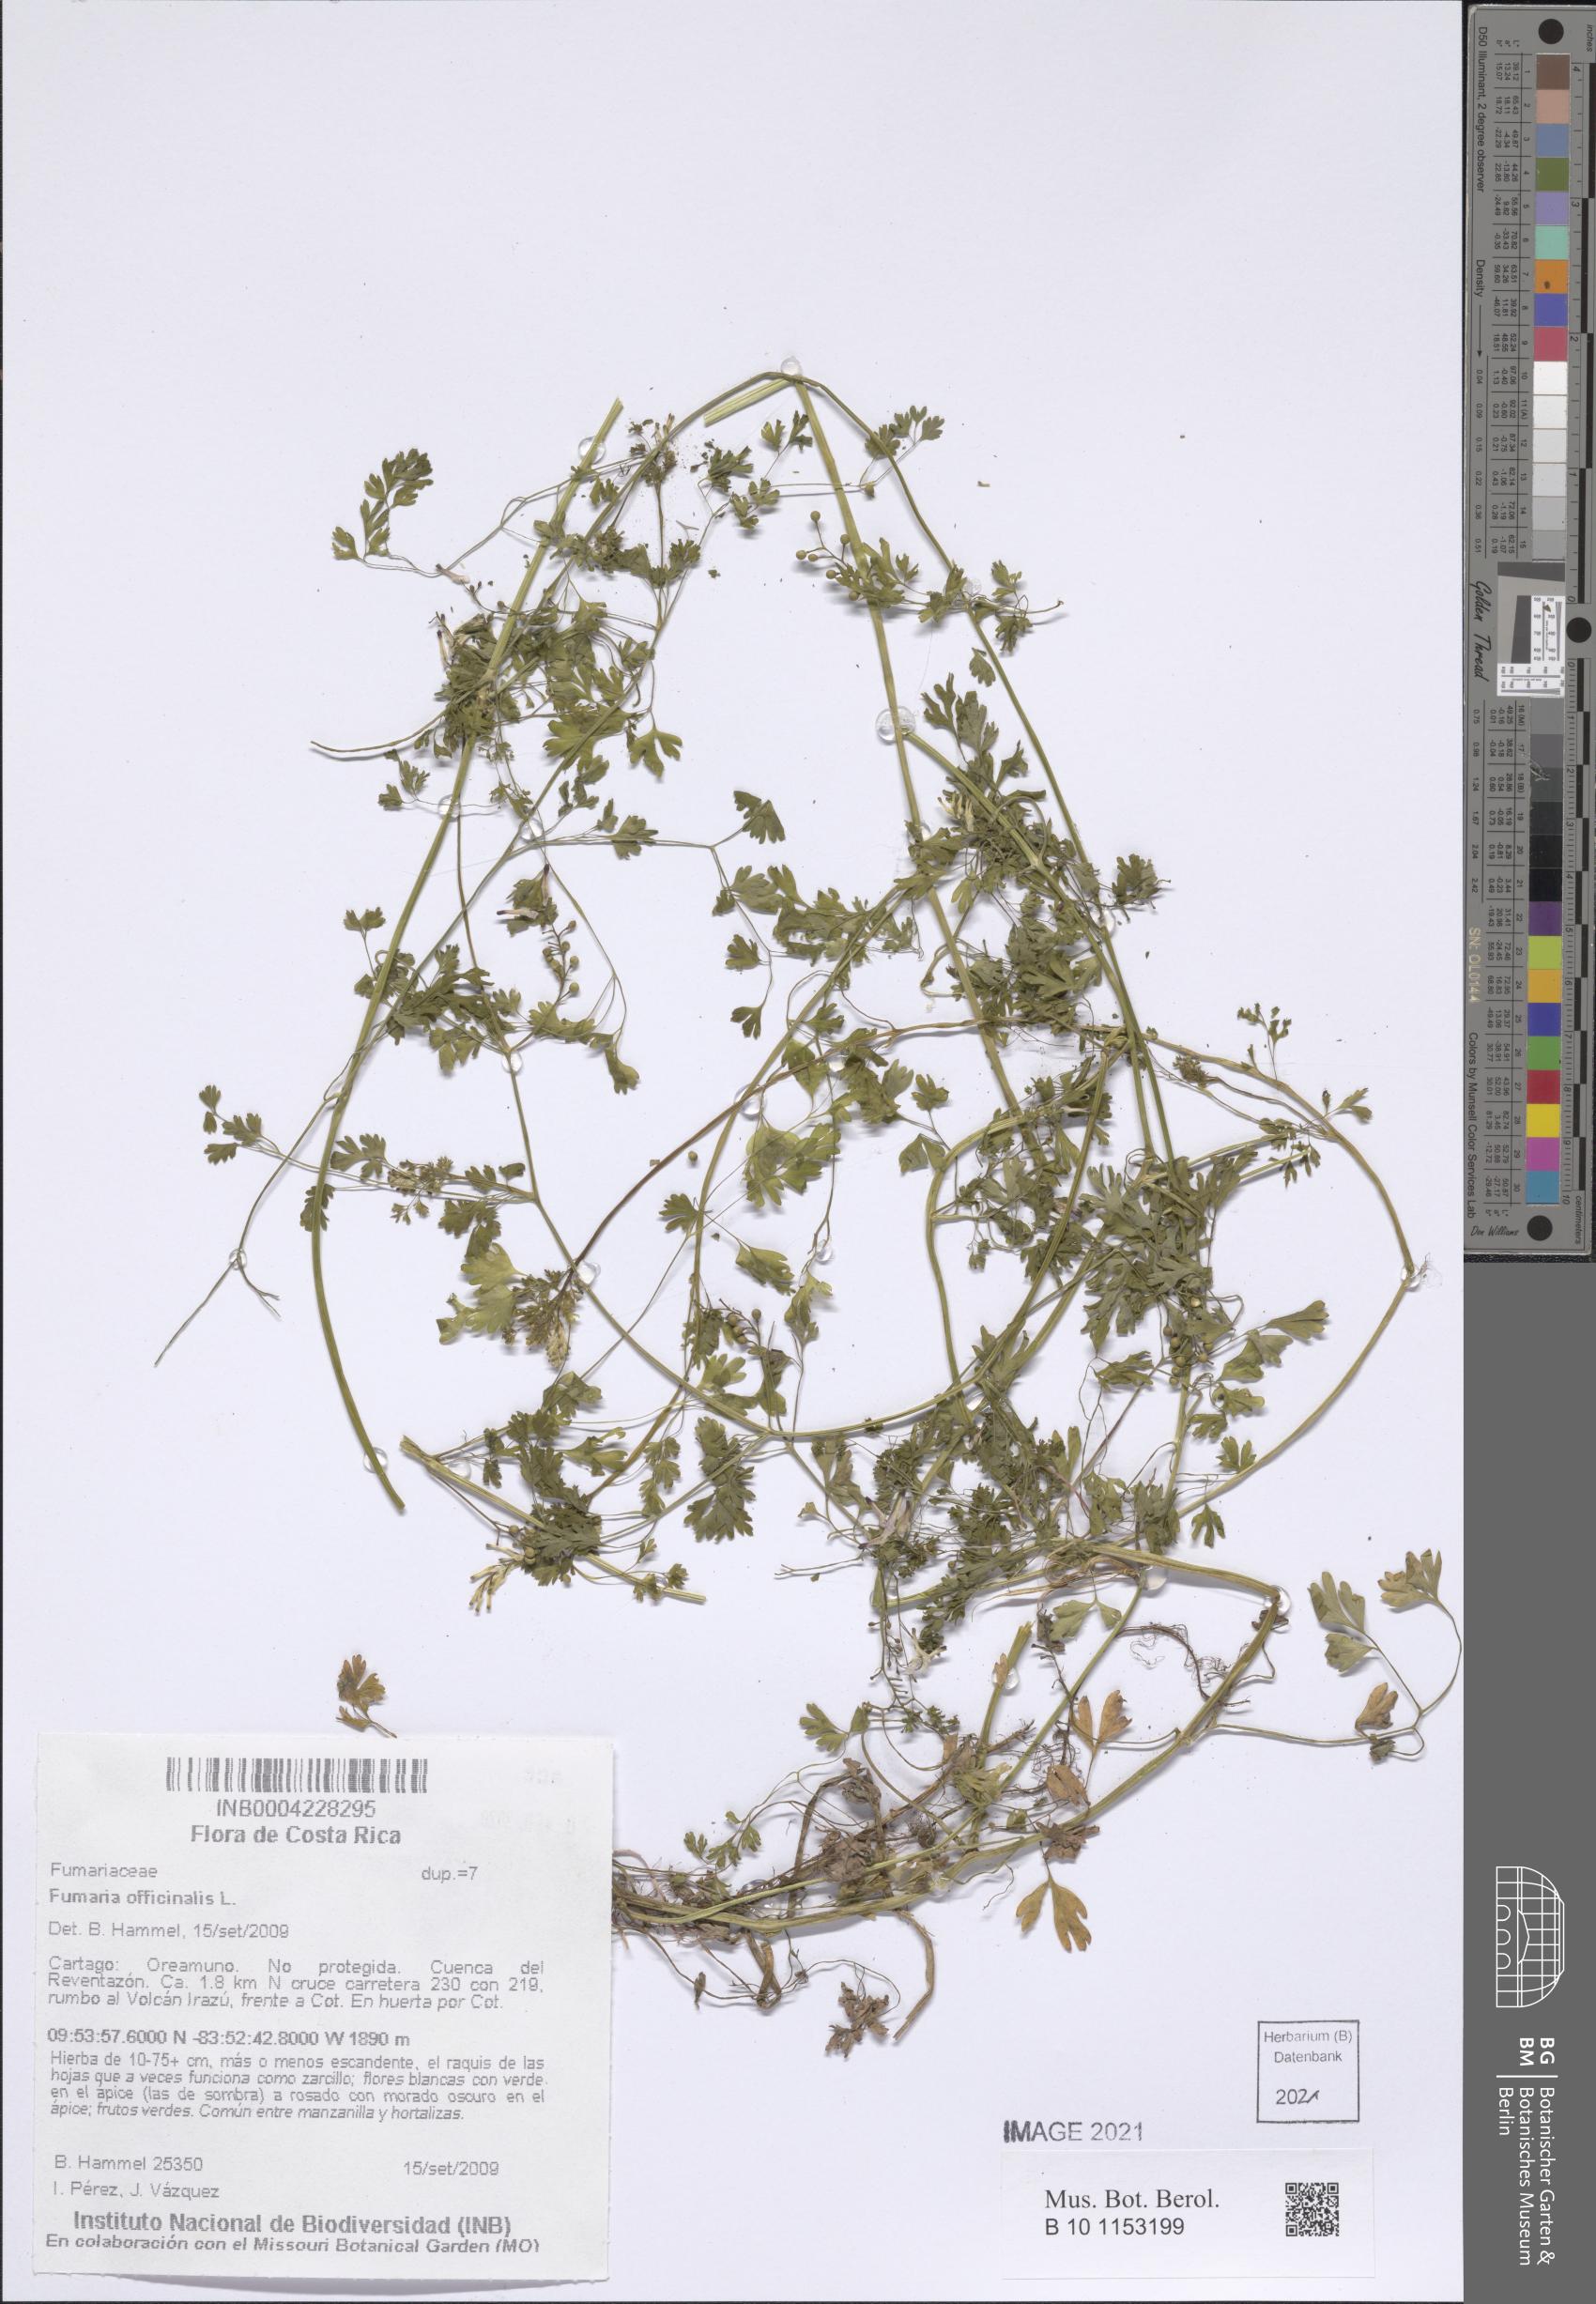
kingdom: Plantae
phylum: Tracheophyta
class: Magnoliopsida
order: Ranunculales
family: Papaveraceae
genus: Fumaria
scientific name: Fumaria officinalis
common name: Common fumitory
